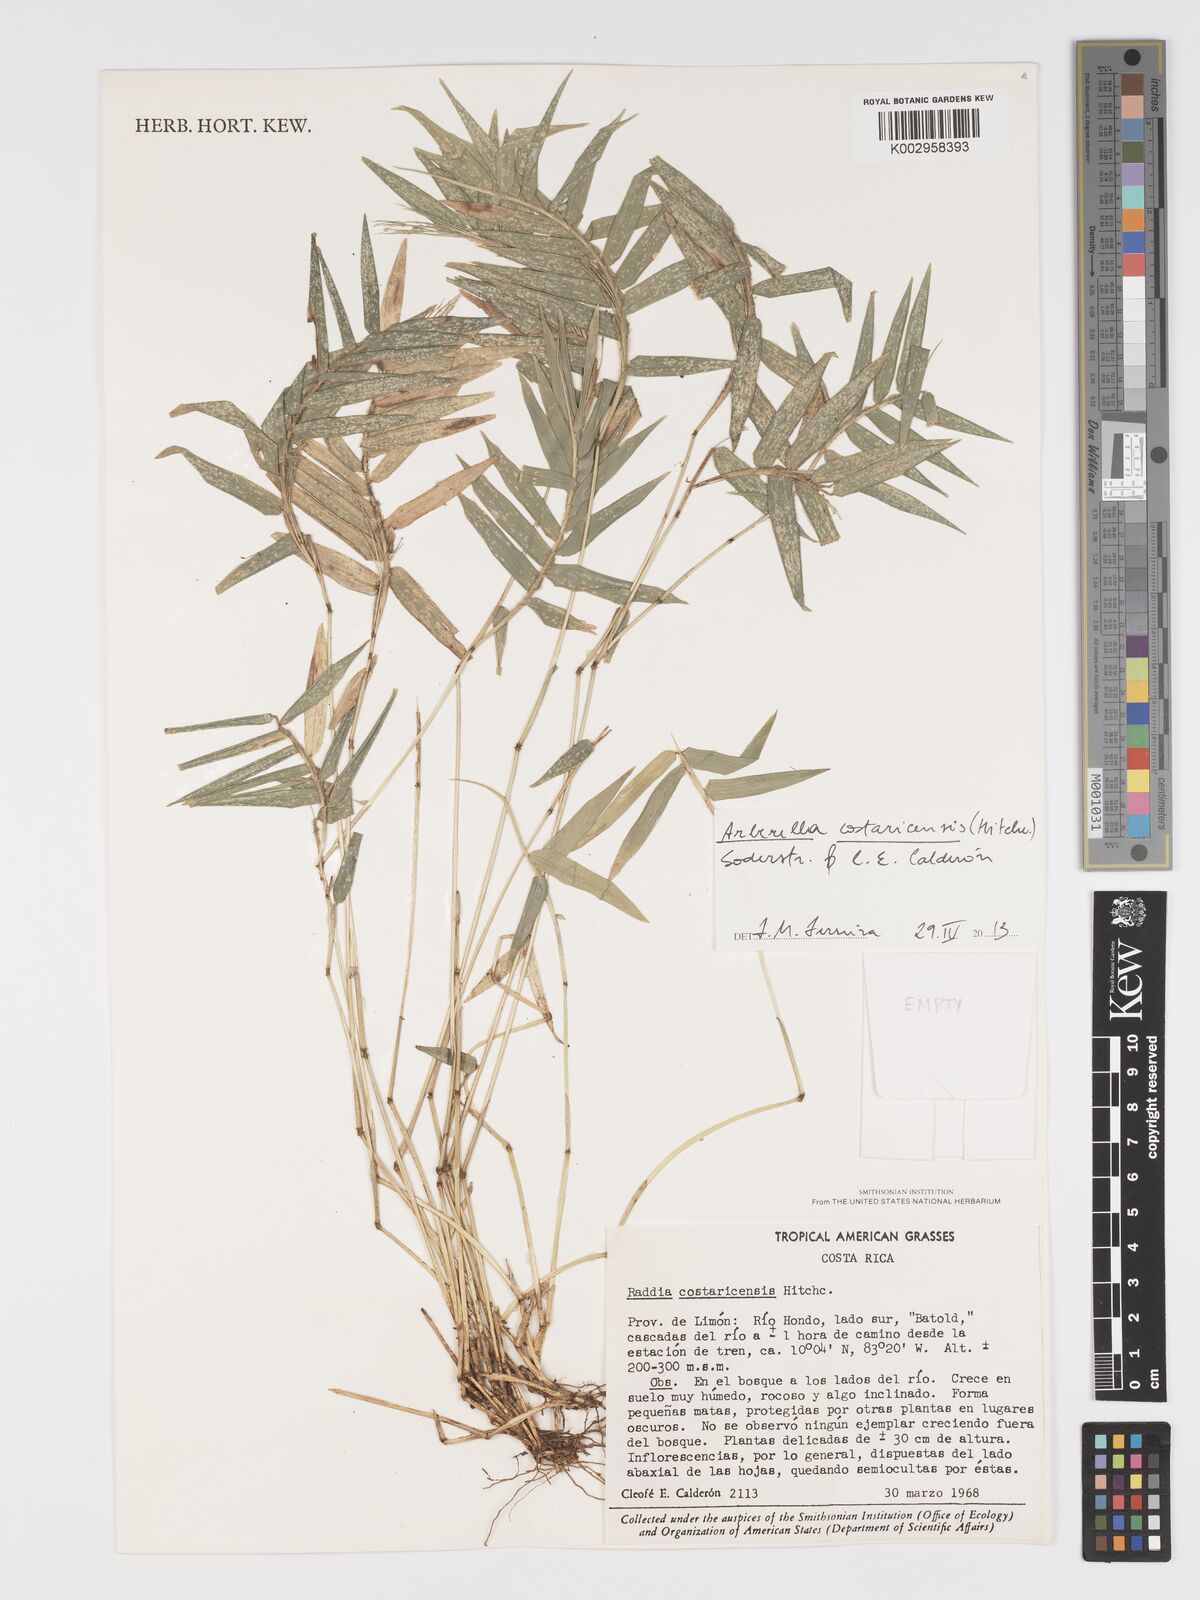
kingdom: Plantae
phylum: Tracheophyta
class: Liliopsida
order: Poales
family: Poaceae
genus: Arberella
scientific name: Arberella costaricensis
